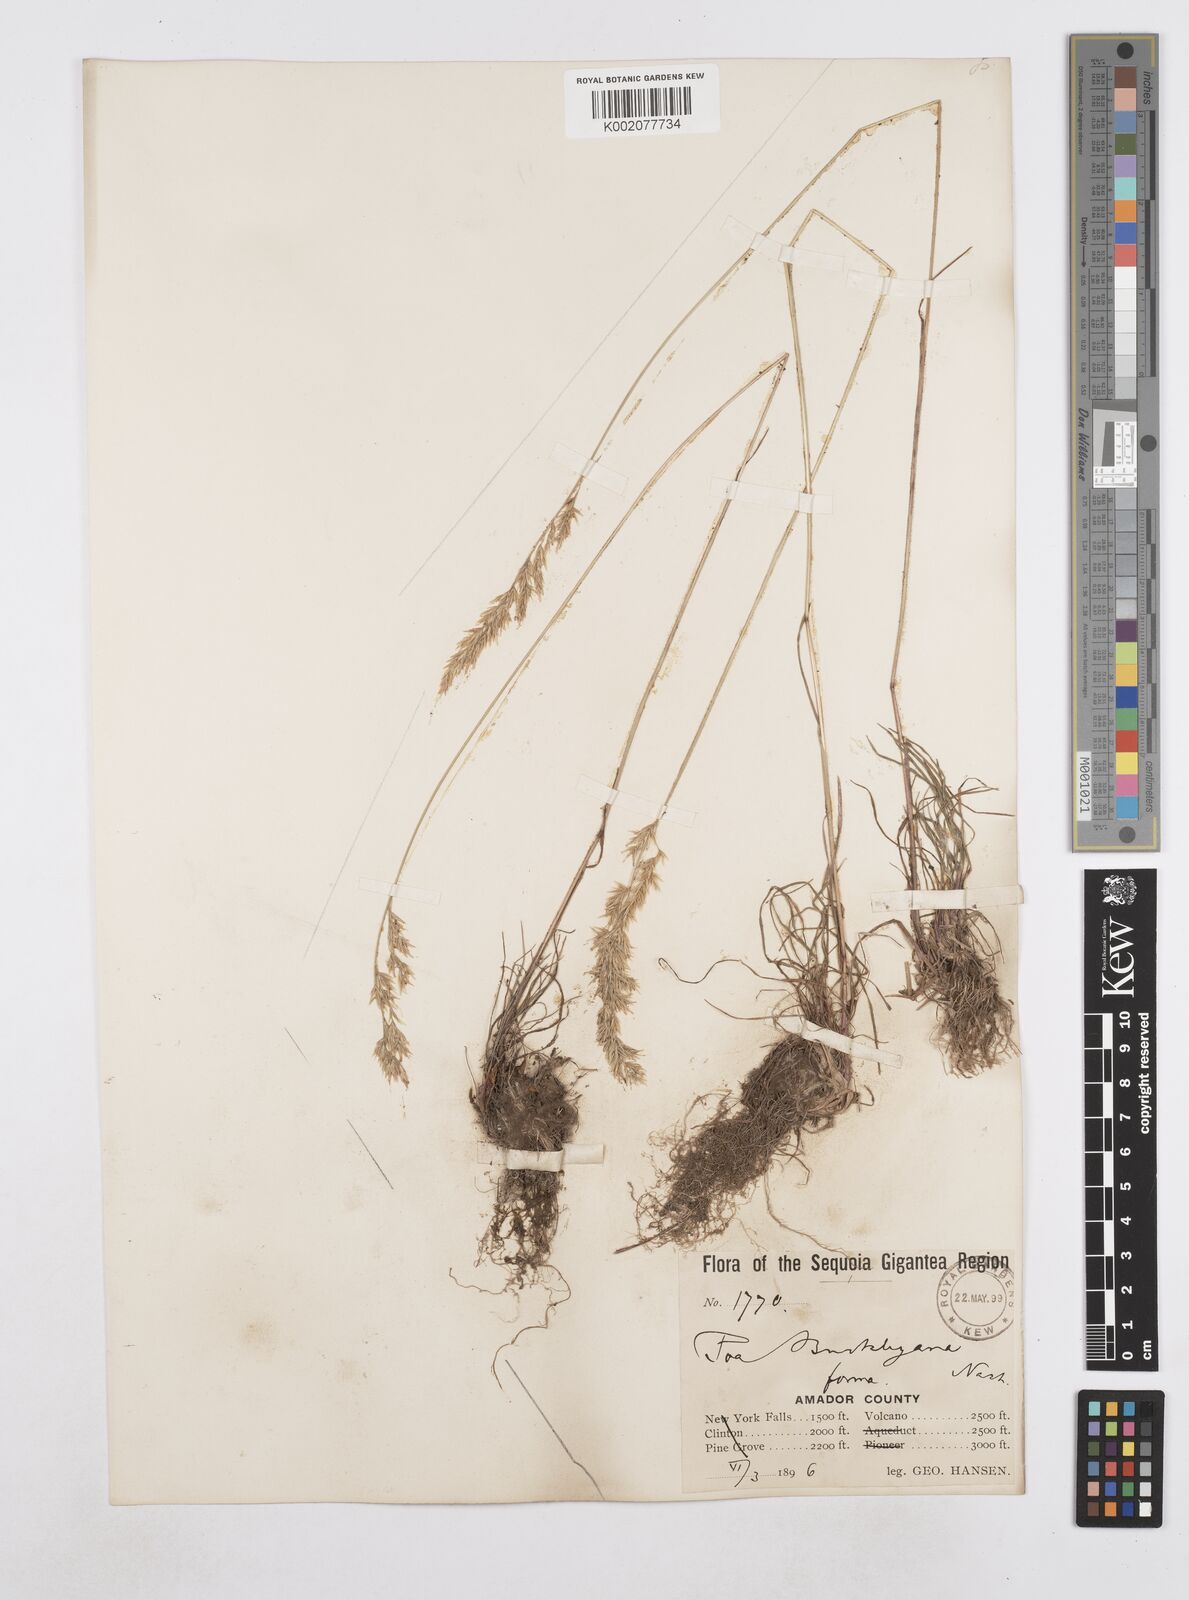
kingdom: Plantae
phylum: Tracheophyta
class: Liliopsida
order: Poales
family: Poaceae
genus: Poa
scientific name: Poa secunda
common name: Sandberg bluegrass
